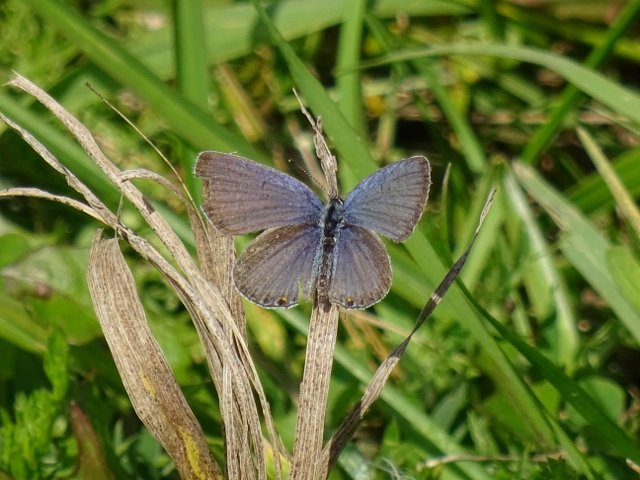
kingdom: Animalia
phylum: Arthropoda
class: Insecta
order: Lepidoptera
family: Lycaenidae
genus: Elkalyce
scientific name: Elkalyce comyntas
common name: Eastern Tailed-Blue
